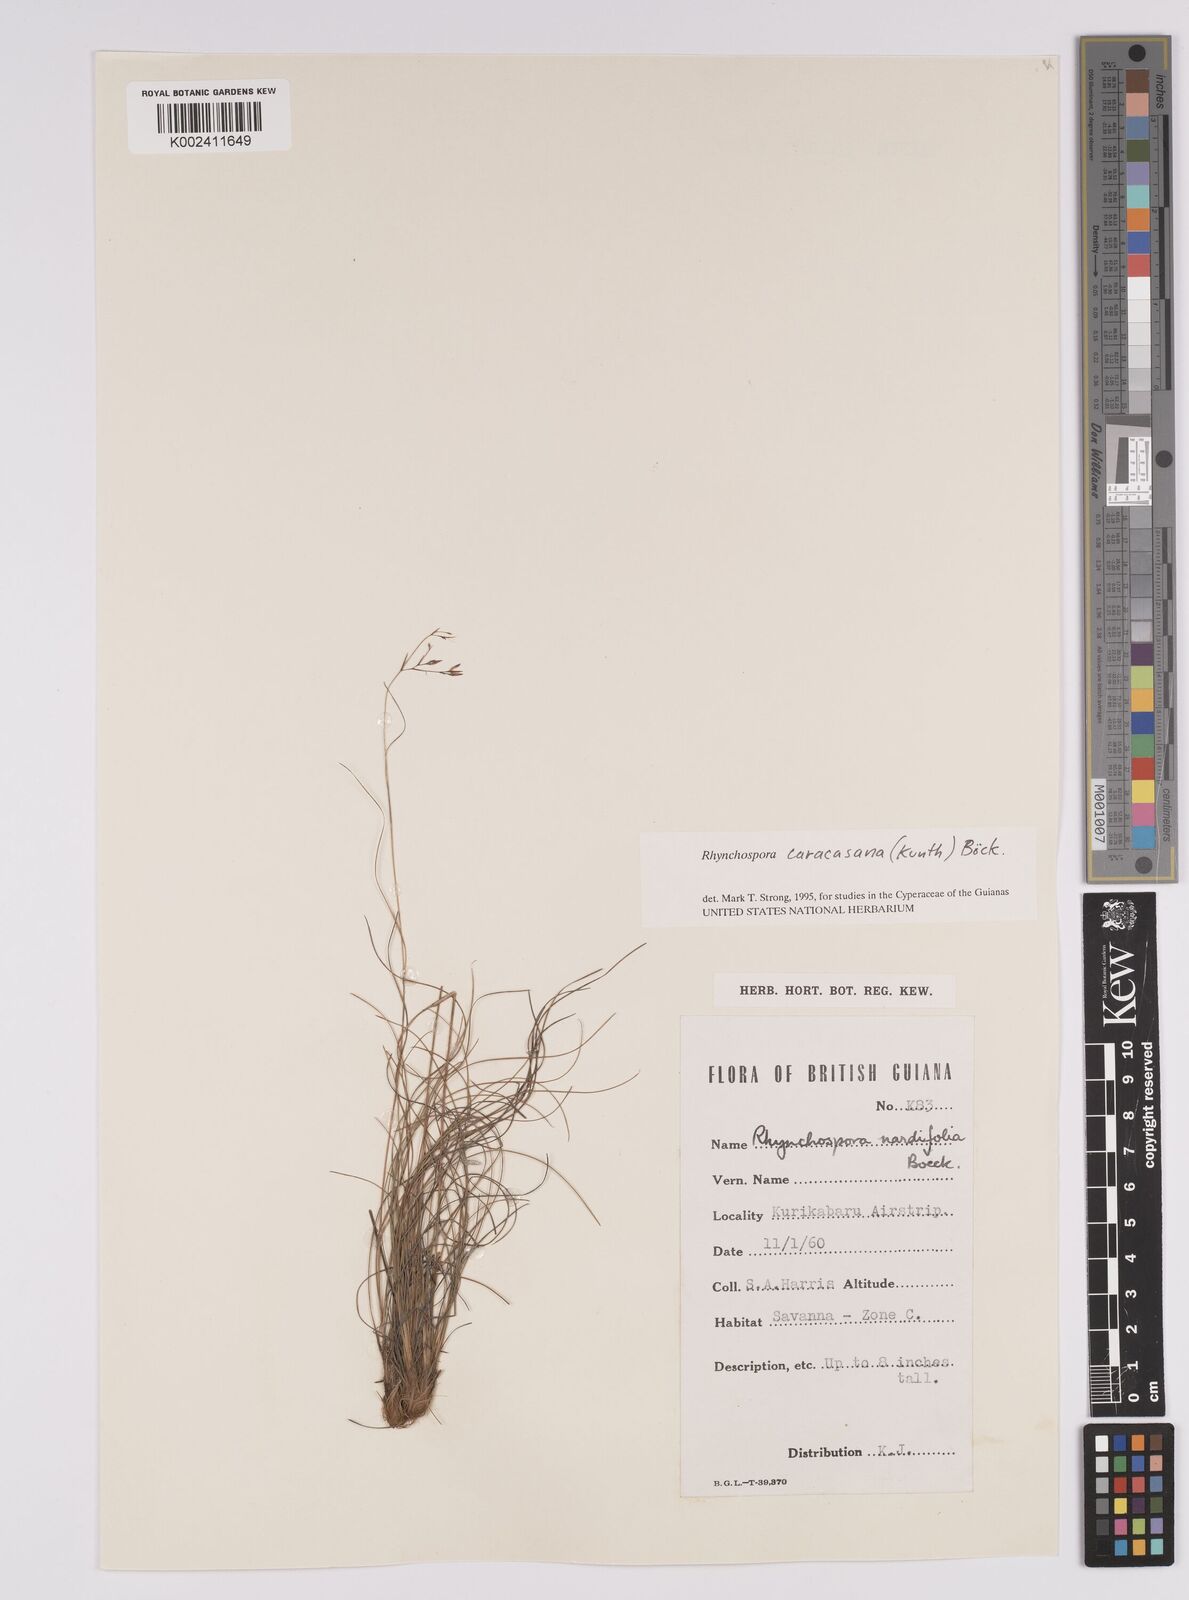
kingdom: Plantae
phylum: Tracheophyta
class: Liliopsida
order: Poales
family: Cyperaceae
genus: Rhynchospora
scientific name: Rhynchospora caracasana
